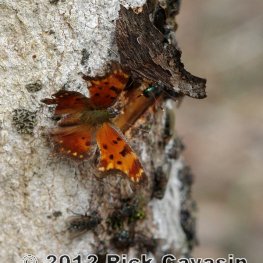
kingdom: Animalia
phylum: Arthropoda
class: Insecta
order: Lepidoptera
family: Nymphalidae
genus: Polygonia
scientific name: Polygonia progne
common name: Gray Comma
